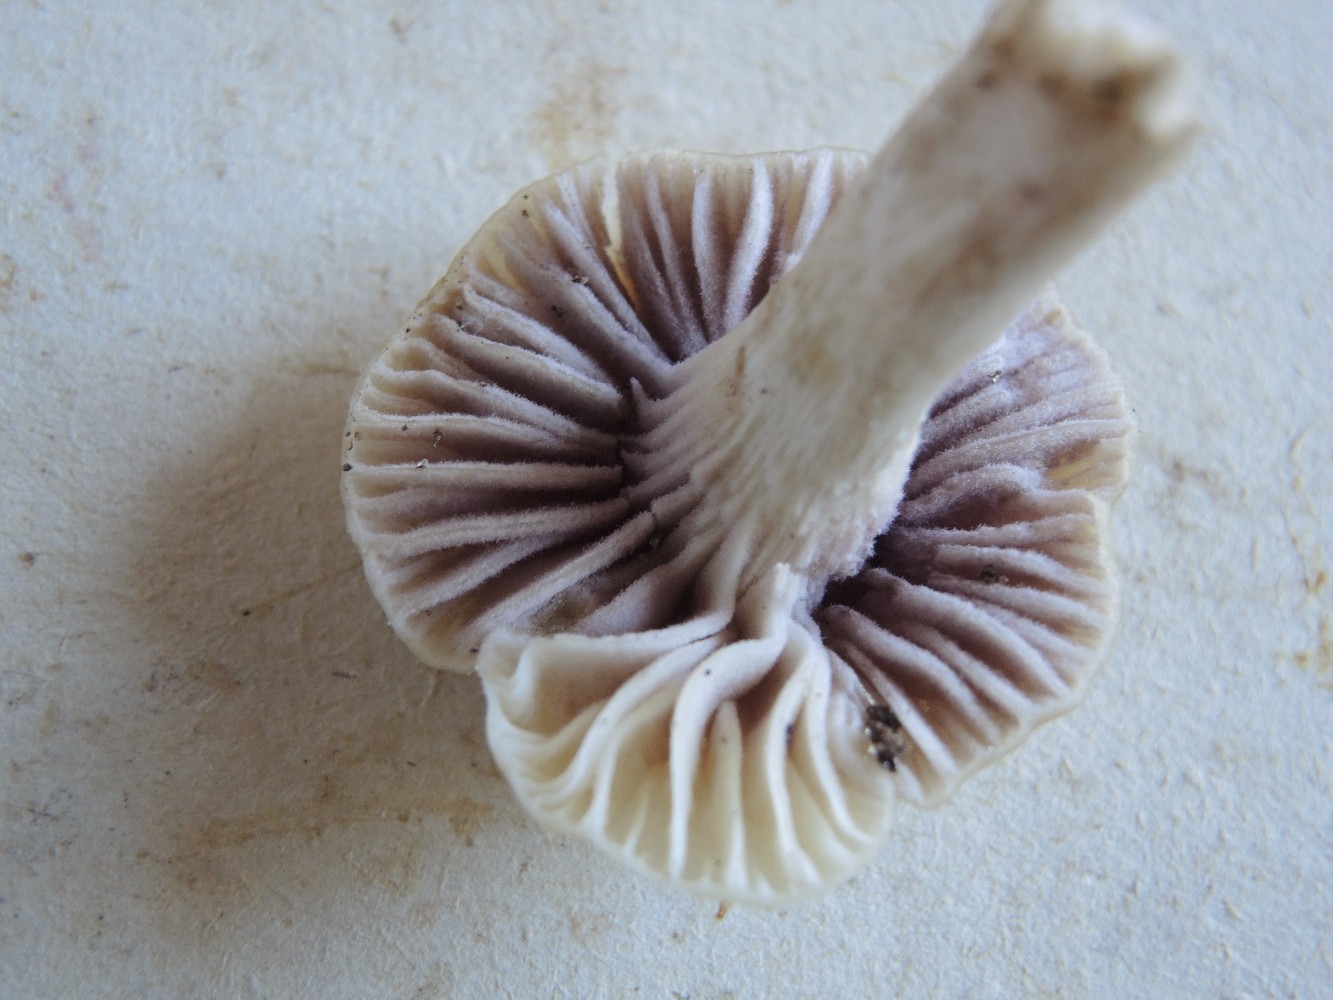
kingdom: Fungi
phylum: Ascomycota
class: Sordariomycetes
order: Hypocreales
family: Clavicipitaceae
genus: Marquandomyces
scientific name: Marquandomyces marquandii
